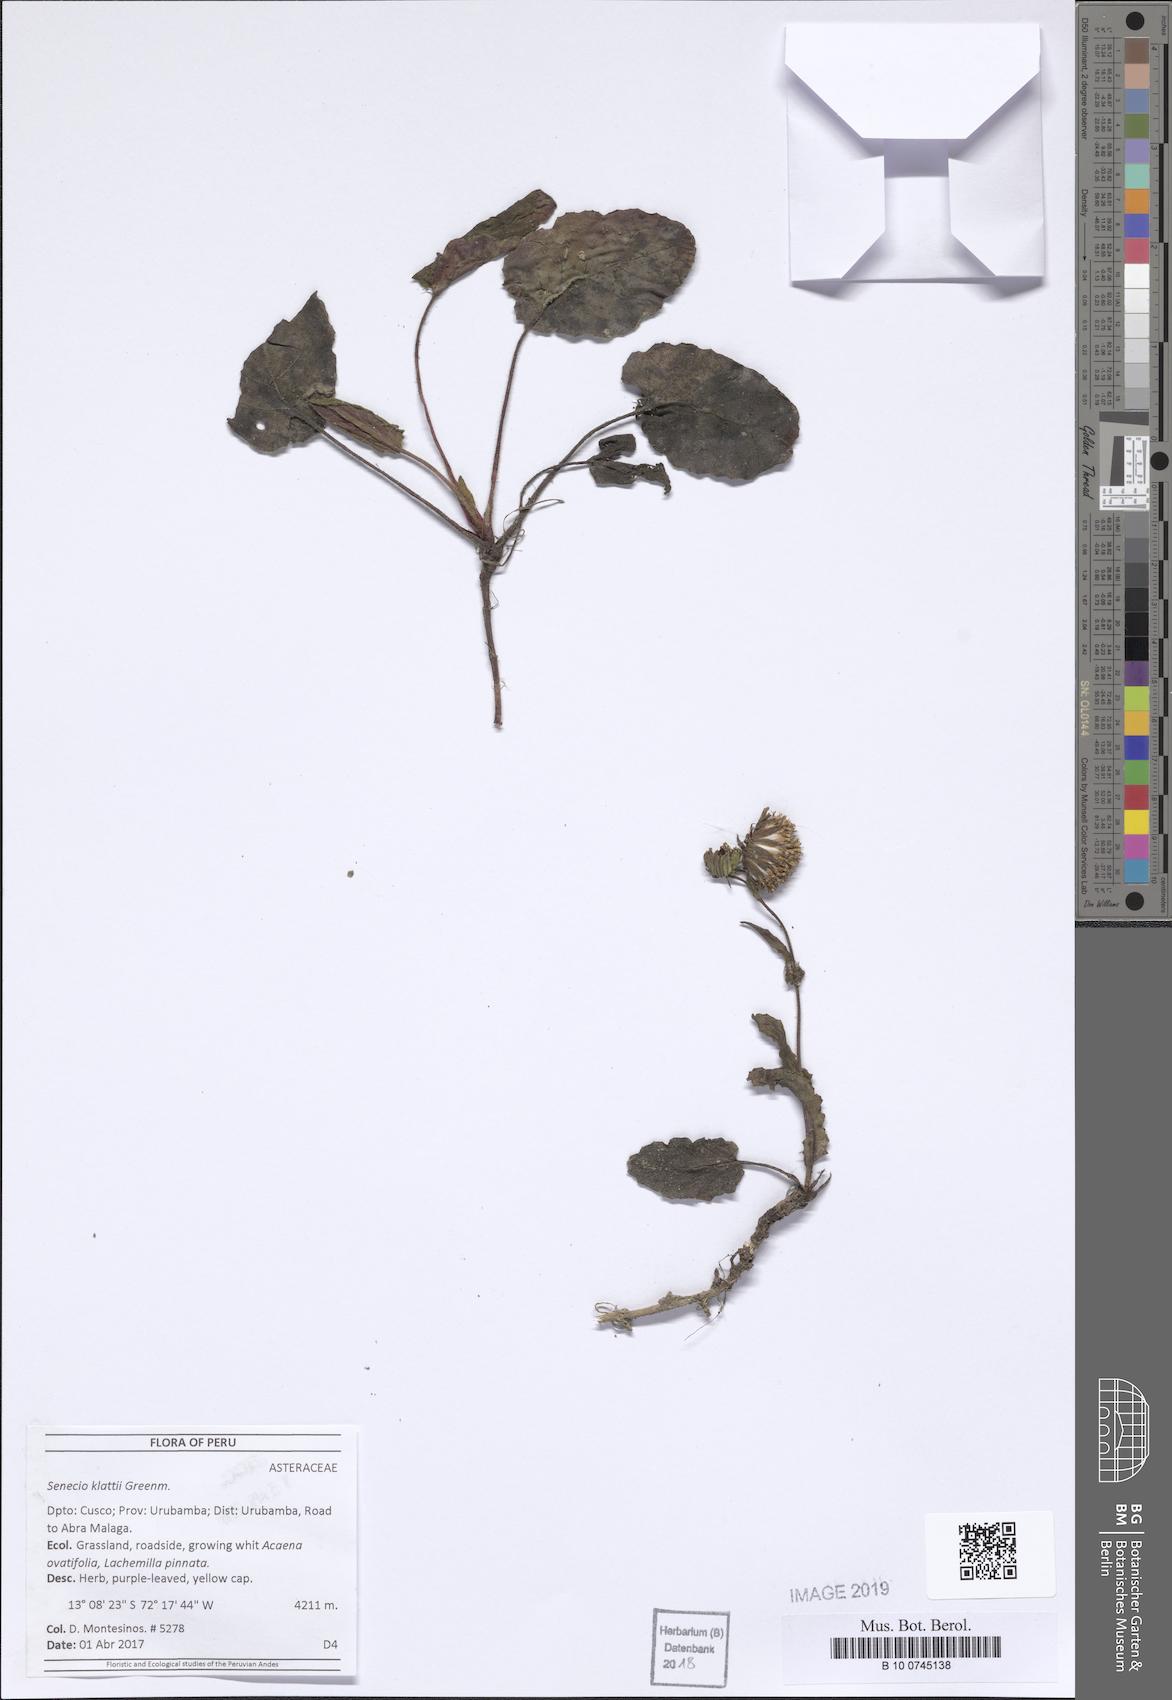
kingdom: Plantae
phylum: Tracheophyta
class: Magnoliopsida
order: Asterales
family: Asteraceae
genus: Senecio
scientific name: Senecio violifolius
